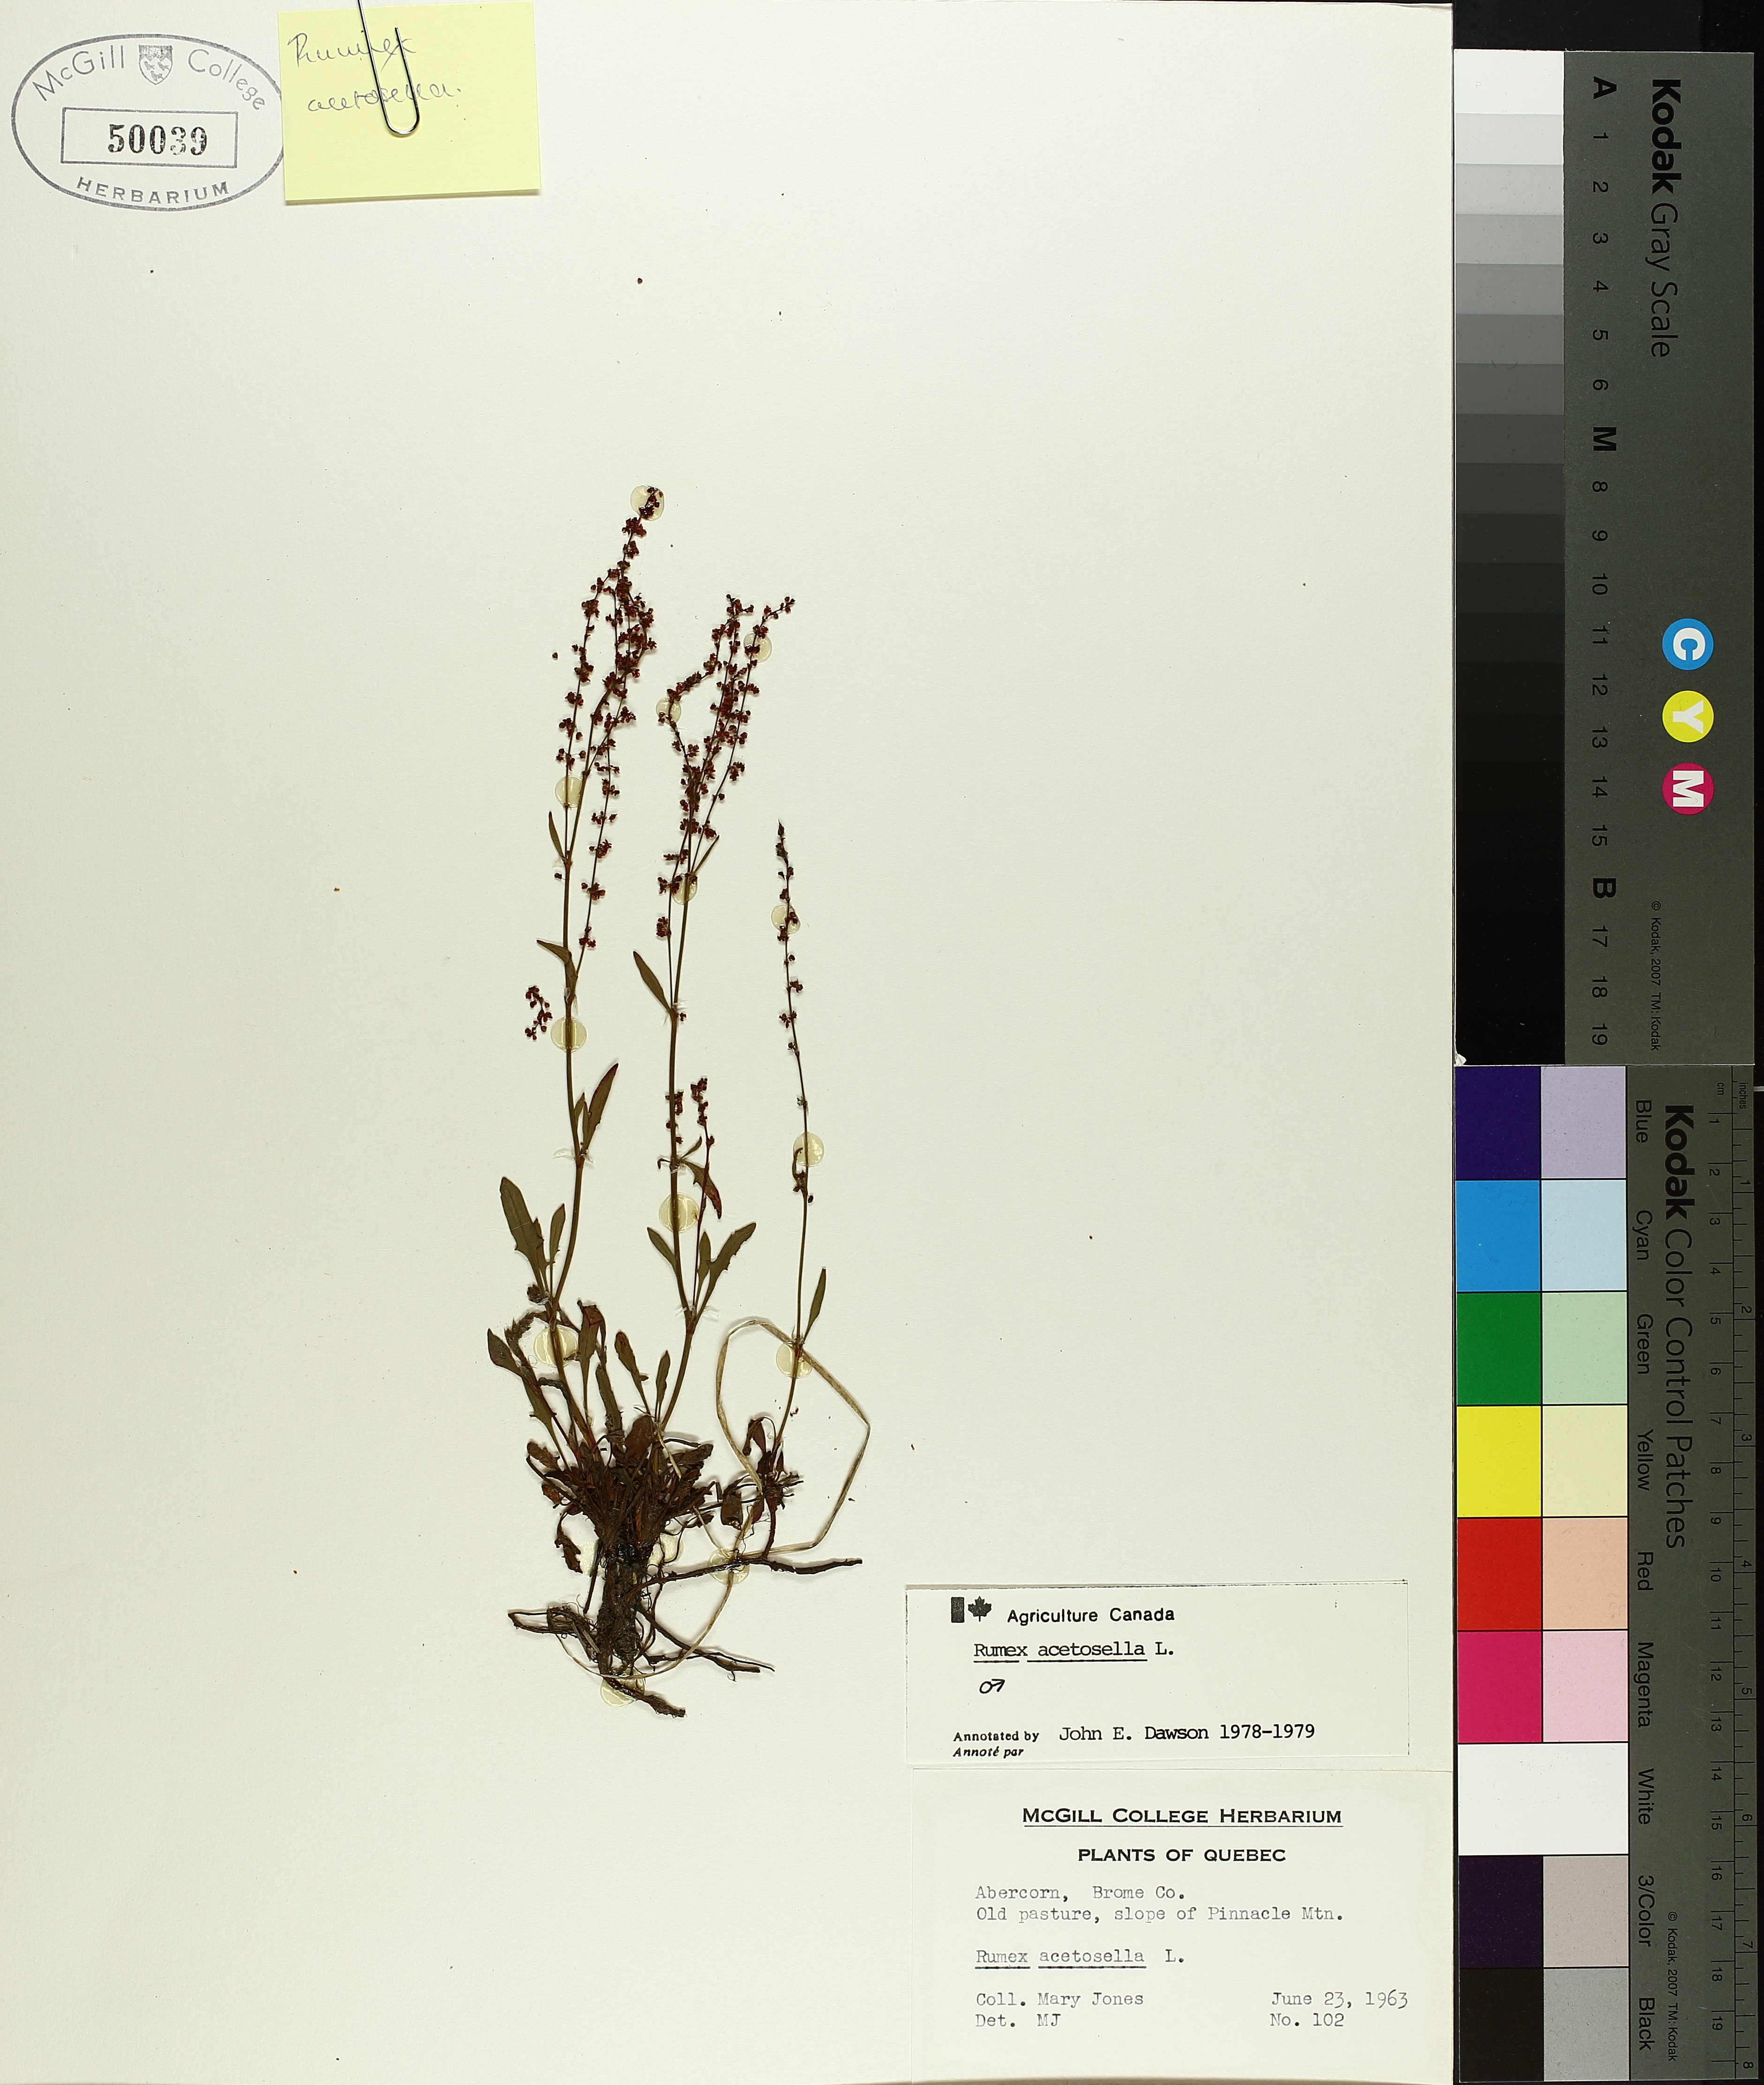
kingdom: Plantae
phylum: Tracheophyta
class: Magnoliopsida
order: Caryophyllales
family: Polygonaceae
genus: Rumex
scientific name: Rumex acetosella
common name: Common sheep sorrel
